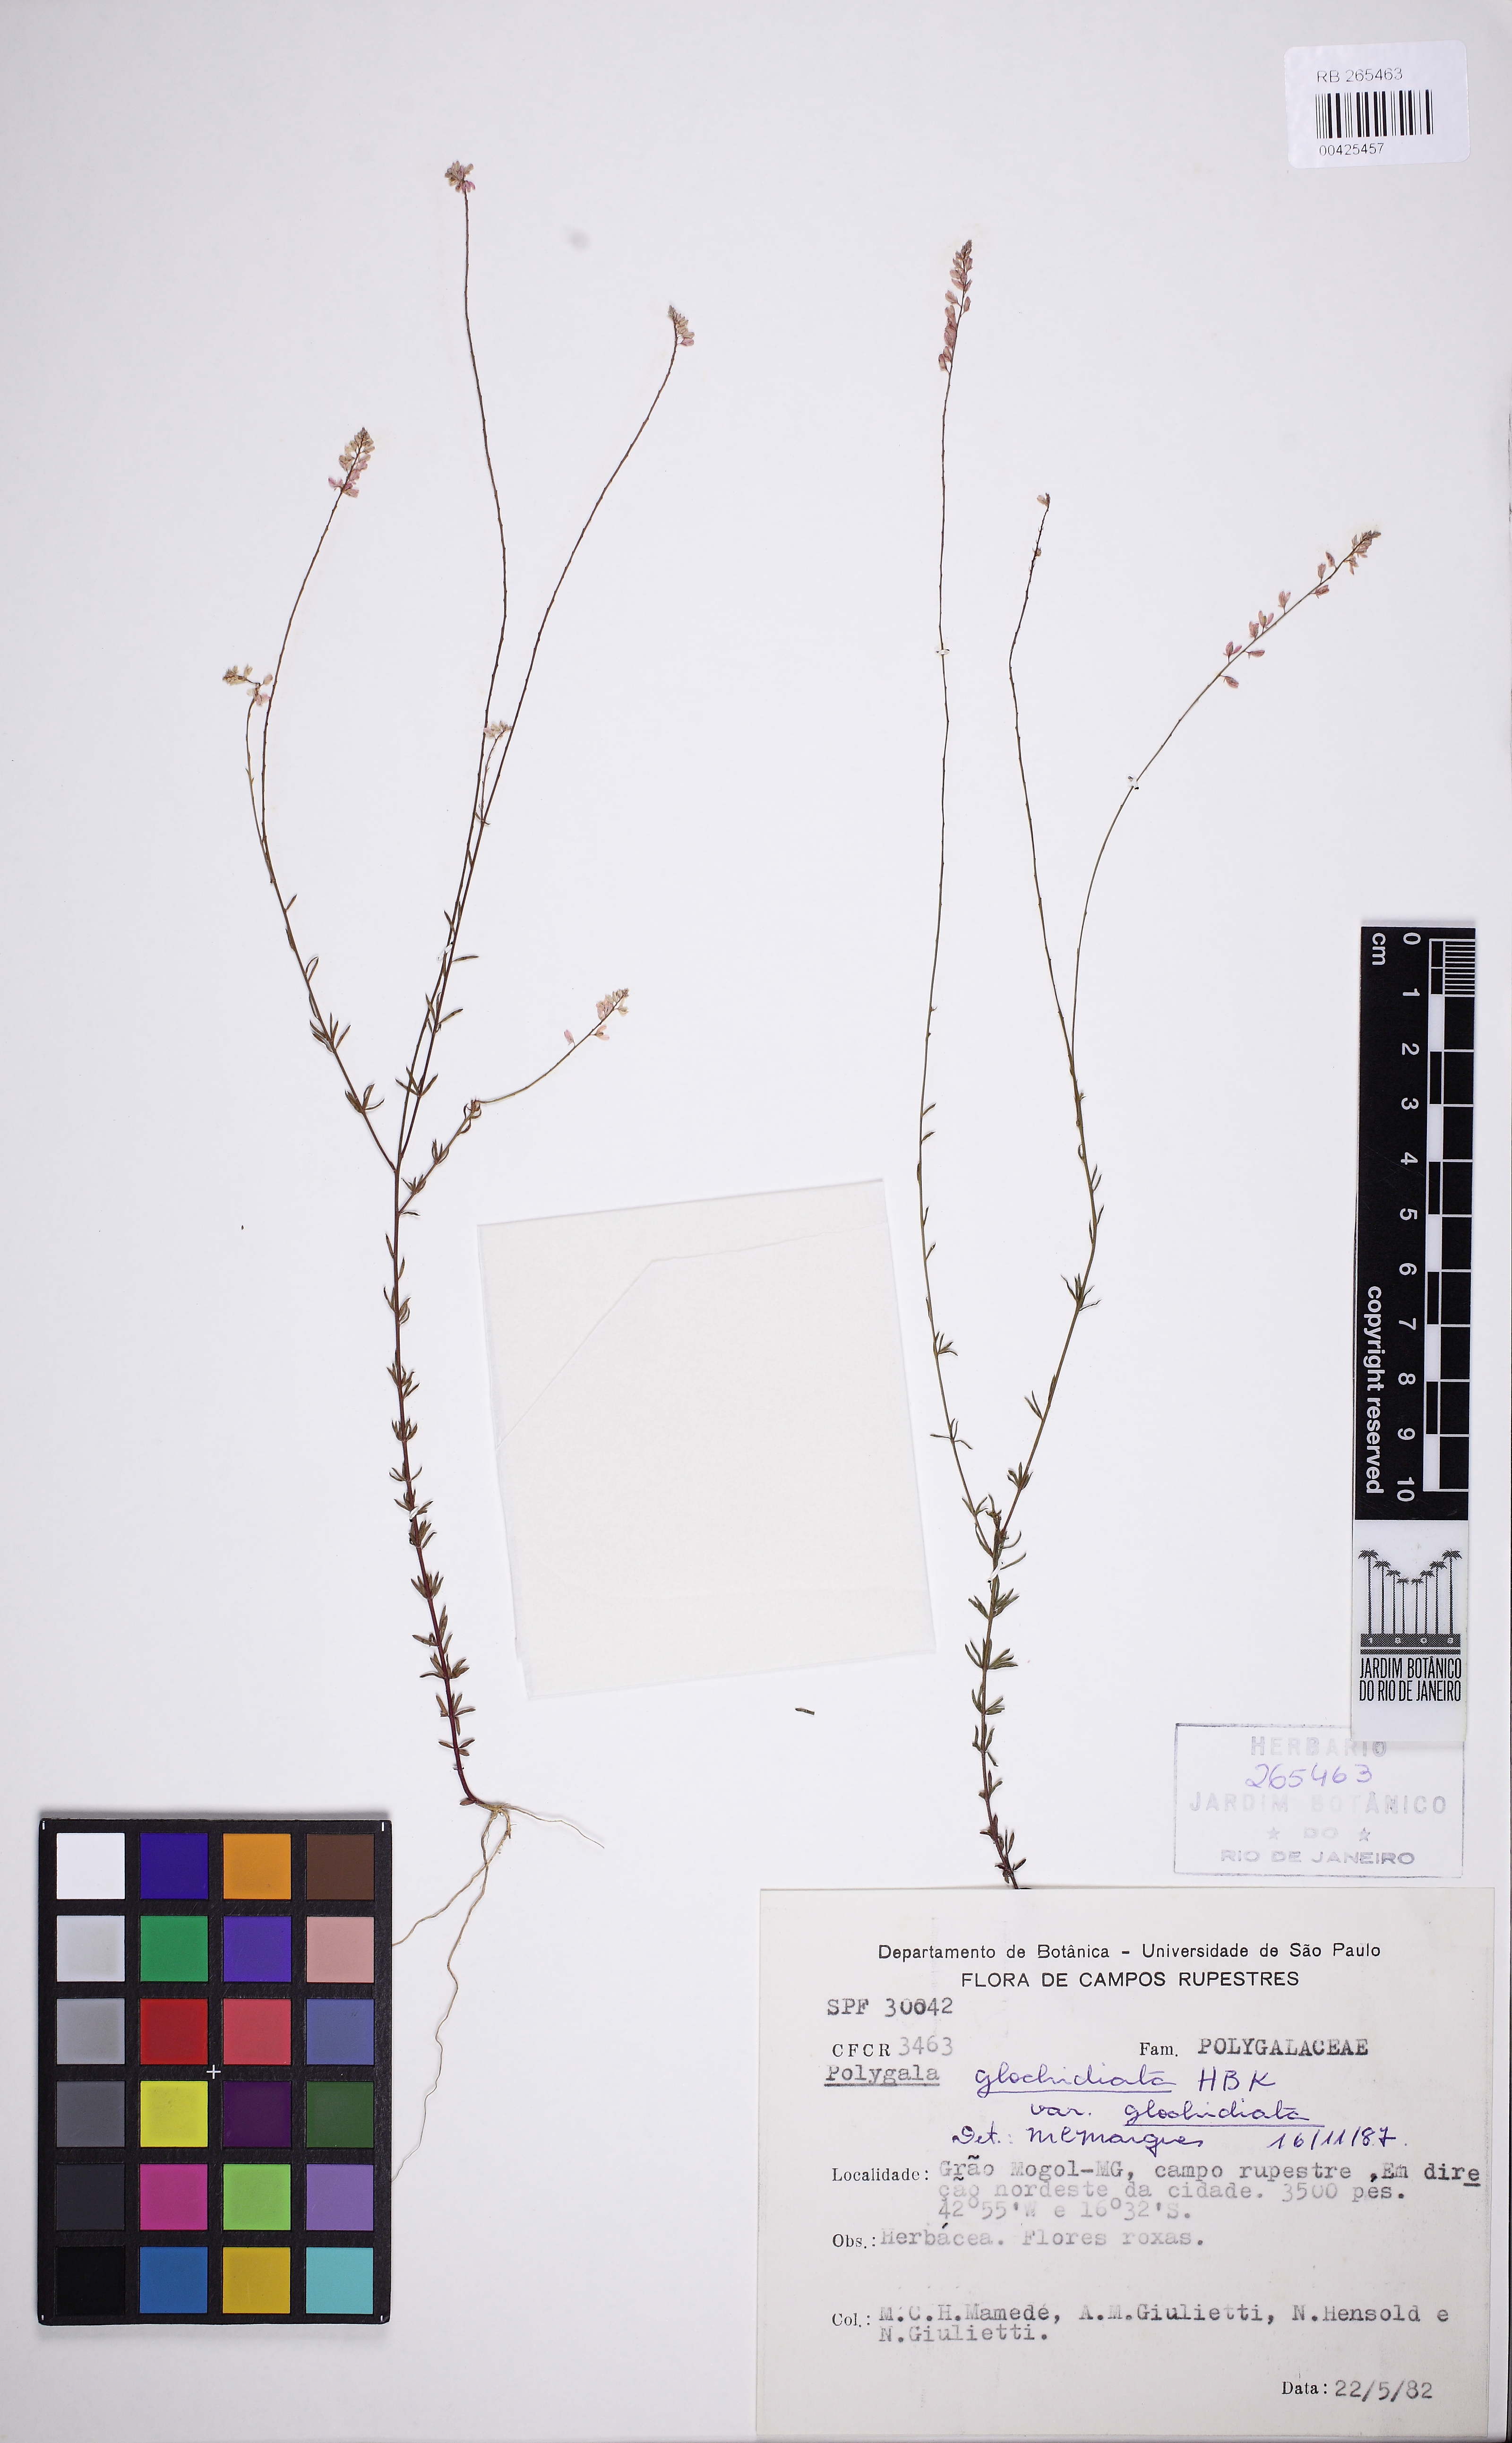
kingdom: Plantae
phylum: Tracheophyta
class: Magnoliopsida
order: Fabales
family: Polygalaceae
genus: Polygala
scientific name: Polygala glochidiata
